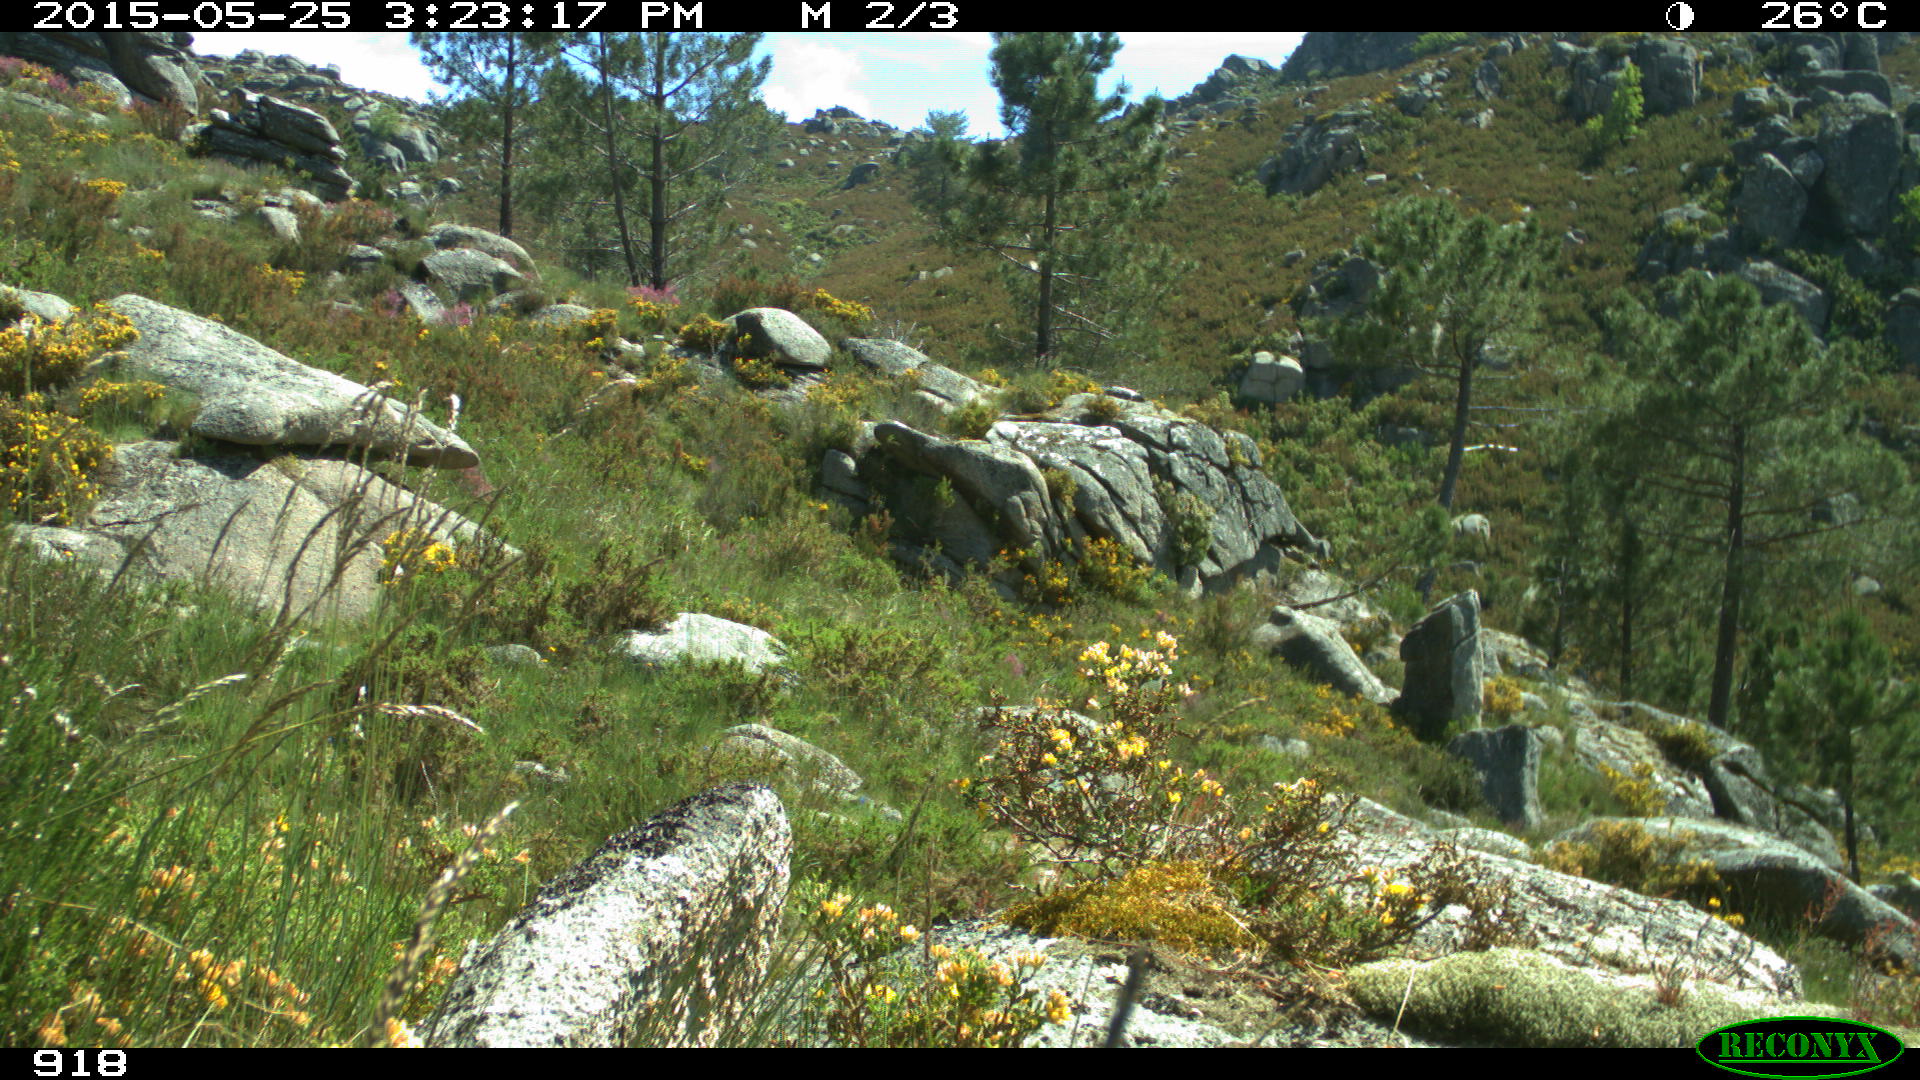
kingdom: Animalia
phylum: Chordata
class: Aves
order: Passeriformes
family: Emberizidae
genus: Emberiza
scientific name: Emberiza cia
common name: Rock bunting
